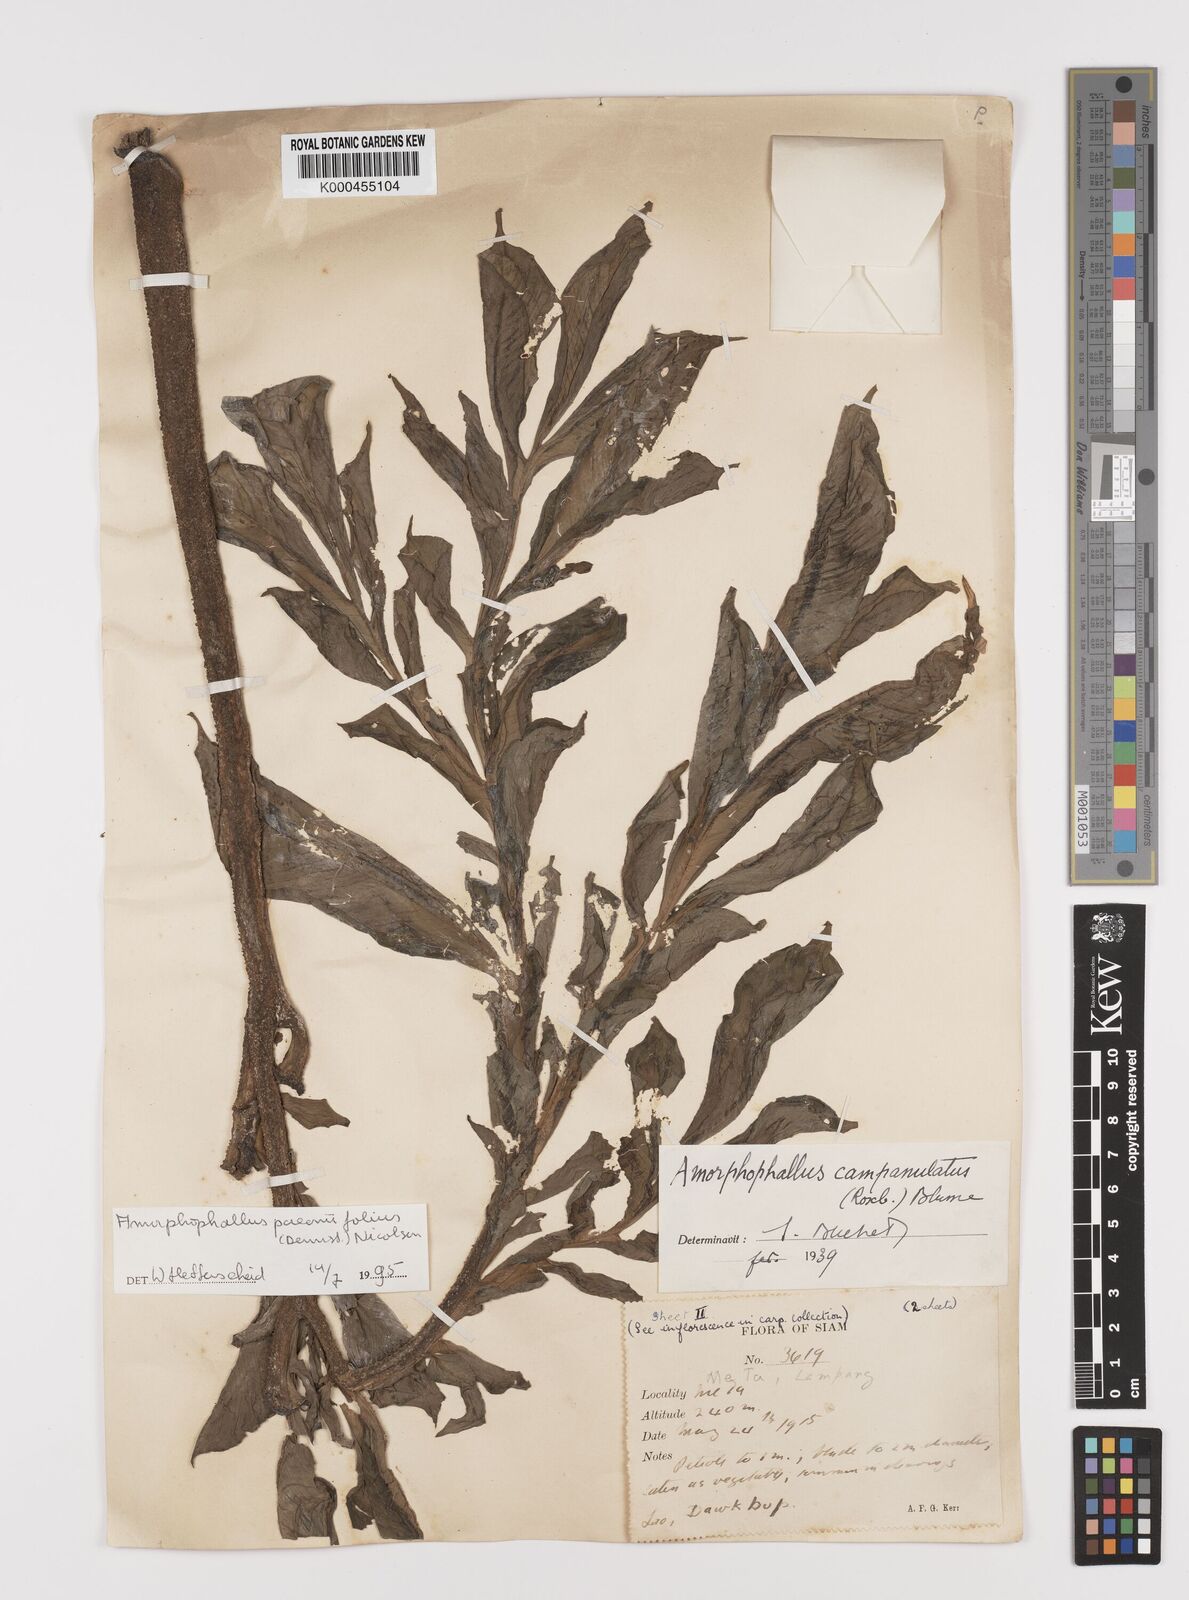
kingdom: Plantae
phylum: Tracheophyta
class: Liliopsida
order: Alismatales
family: Araceae
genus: Amorphophallus
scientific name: Amorphophallus paeoniifolius
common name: Telinga-potato
